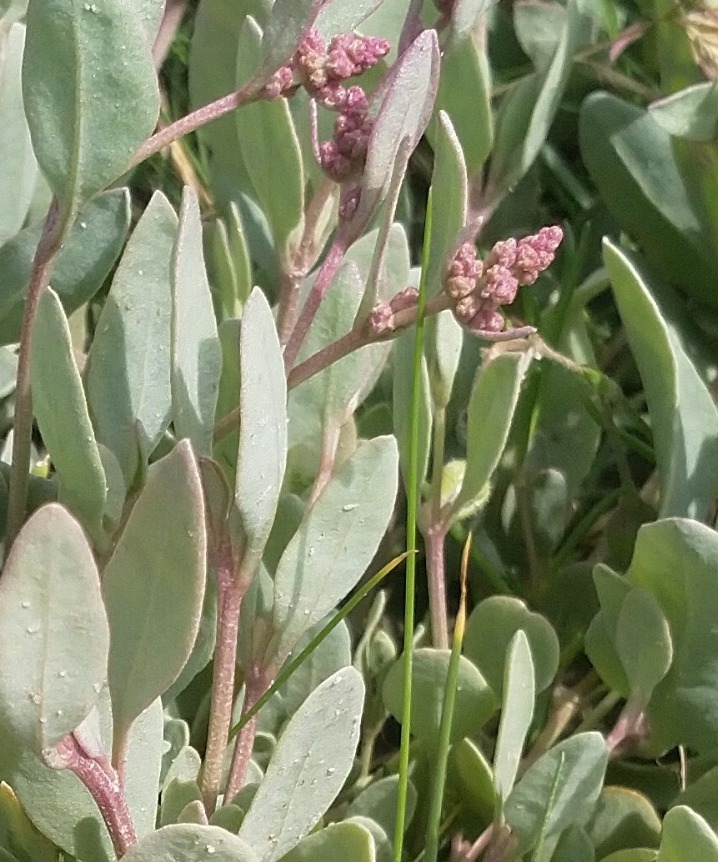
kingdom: Plantae
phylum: Tracheophyta
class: Magnoliopsida
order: Caryophyllales
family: Amaranthaceae
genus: Halimione
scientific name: Halimione portulacoides
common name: Stilkløs kilebæger
